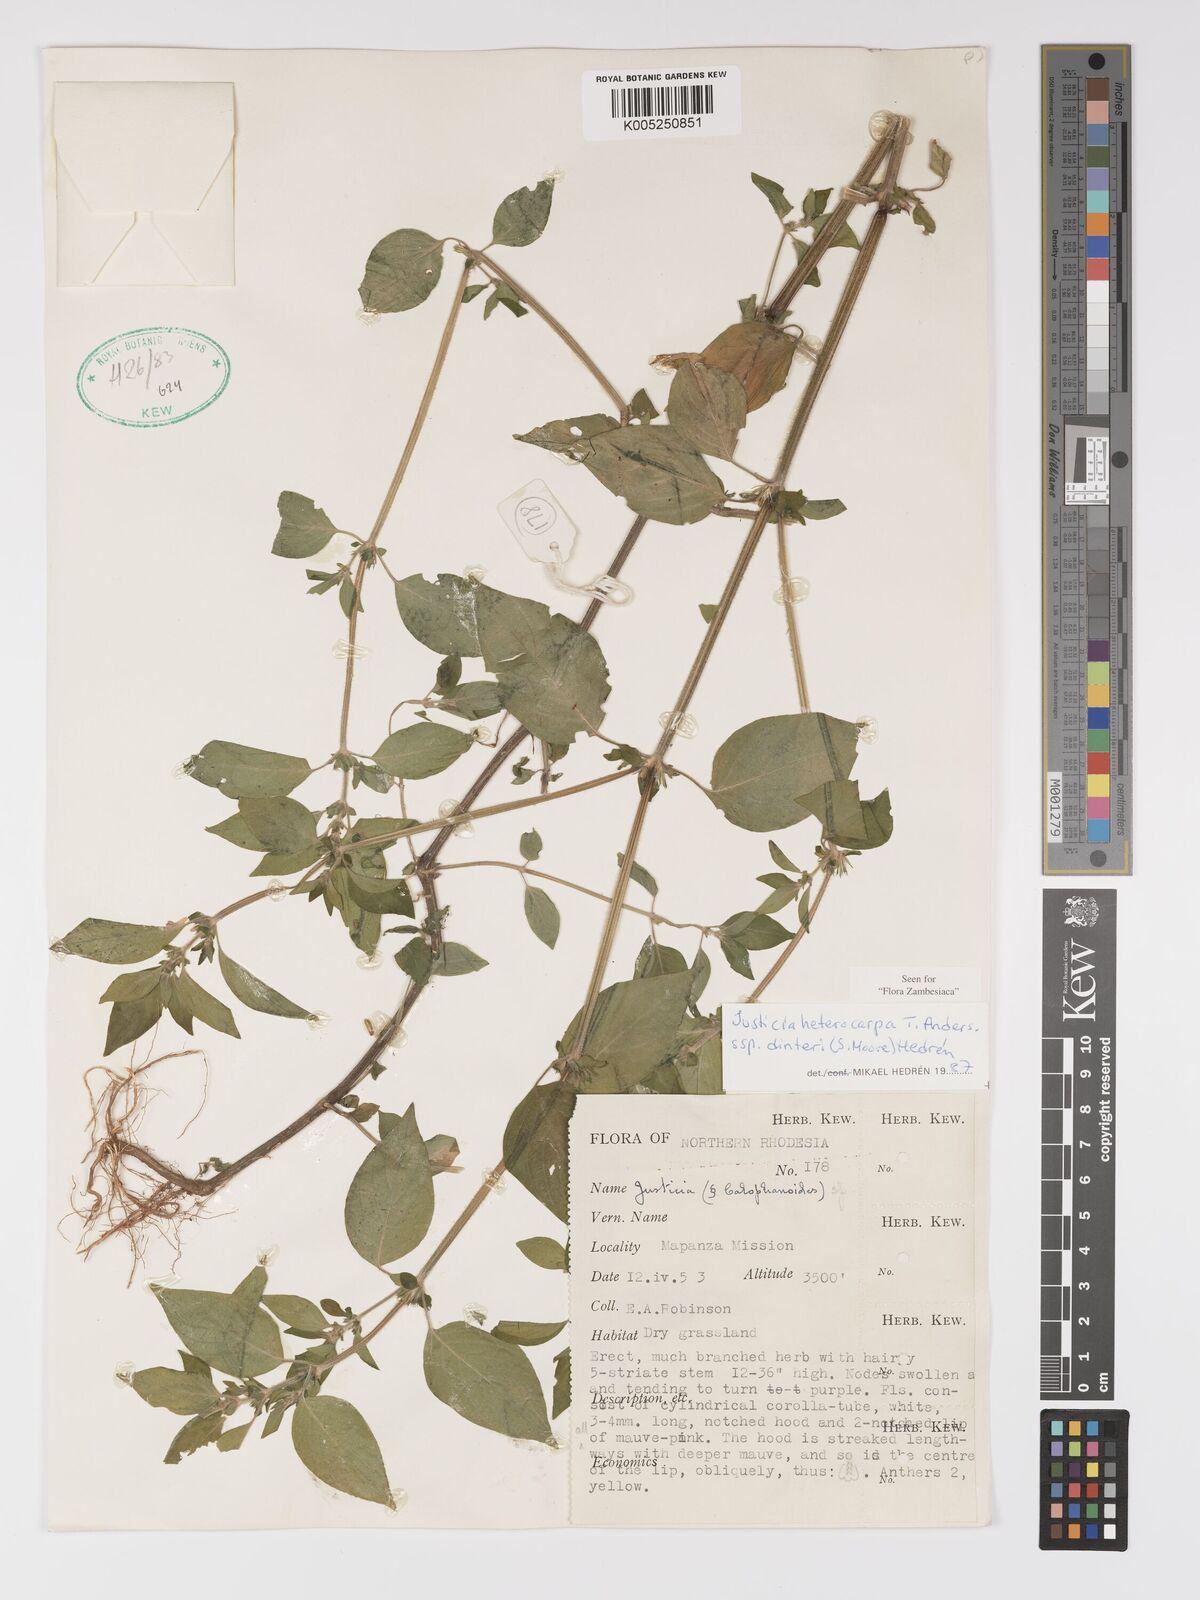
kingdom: Plantae
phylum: Tracheophyta
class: Magnoliopsida
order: Lamiales
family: Acanthaceae
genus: Justicia
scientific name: Justicia heterocarpa
